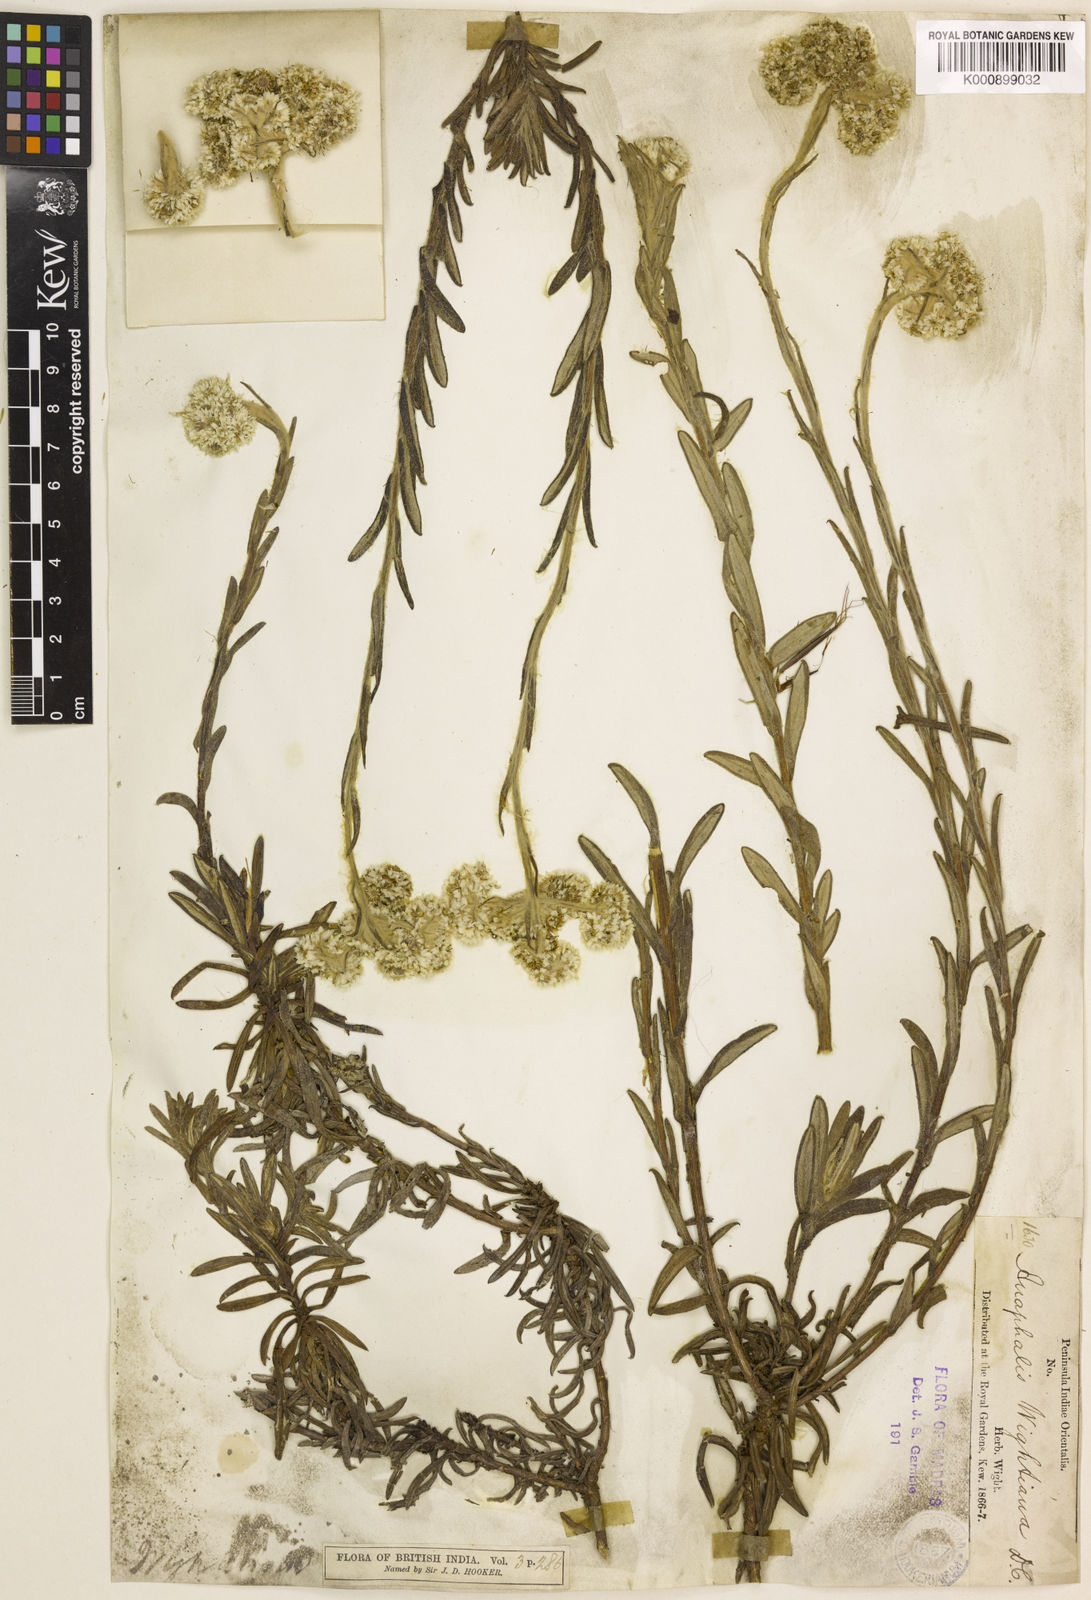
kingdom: Plantae
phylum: Tracheophyta
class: Magnoliopsida
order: Asterales
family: Asteraceae
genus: Anaphalis
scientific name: Anaphalis wightiana
